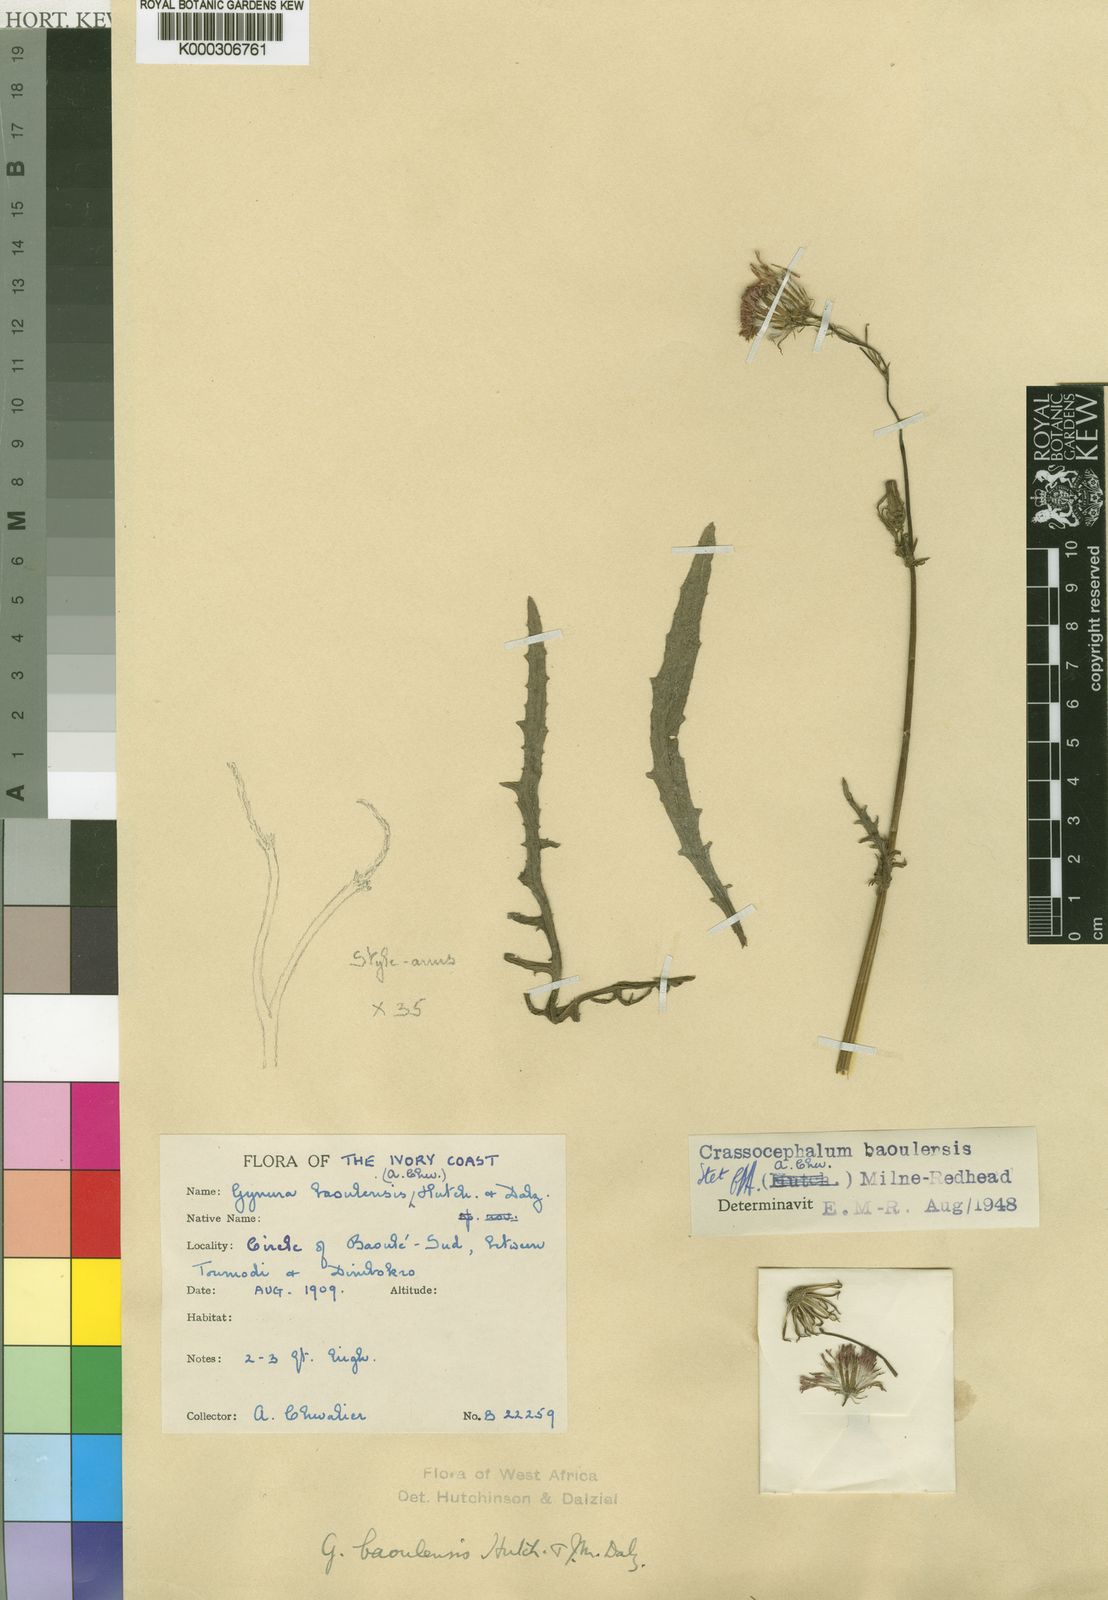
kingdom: Plantae
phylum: Tracheophyta
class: Magnoliopsida
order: Asterales
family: Asteraceae
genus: Crassocephalum
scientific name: Crassocephalum baoulense
